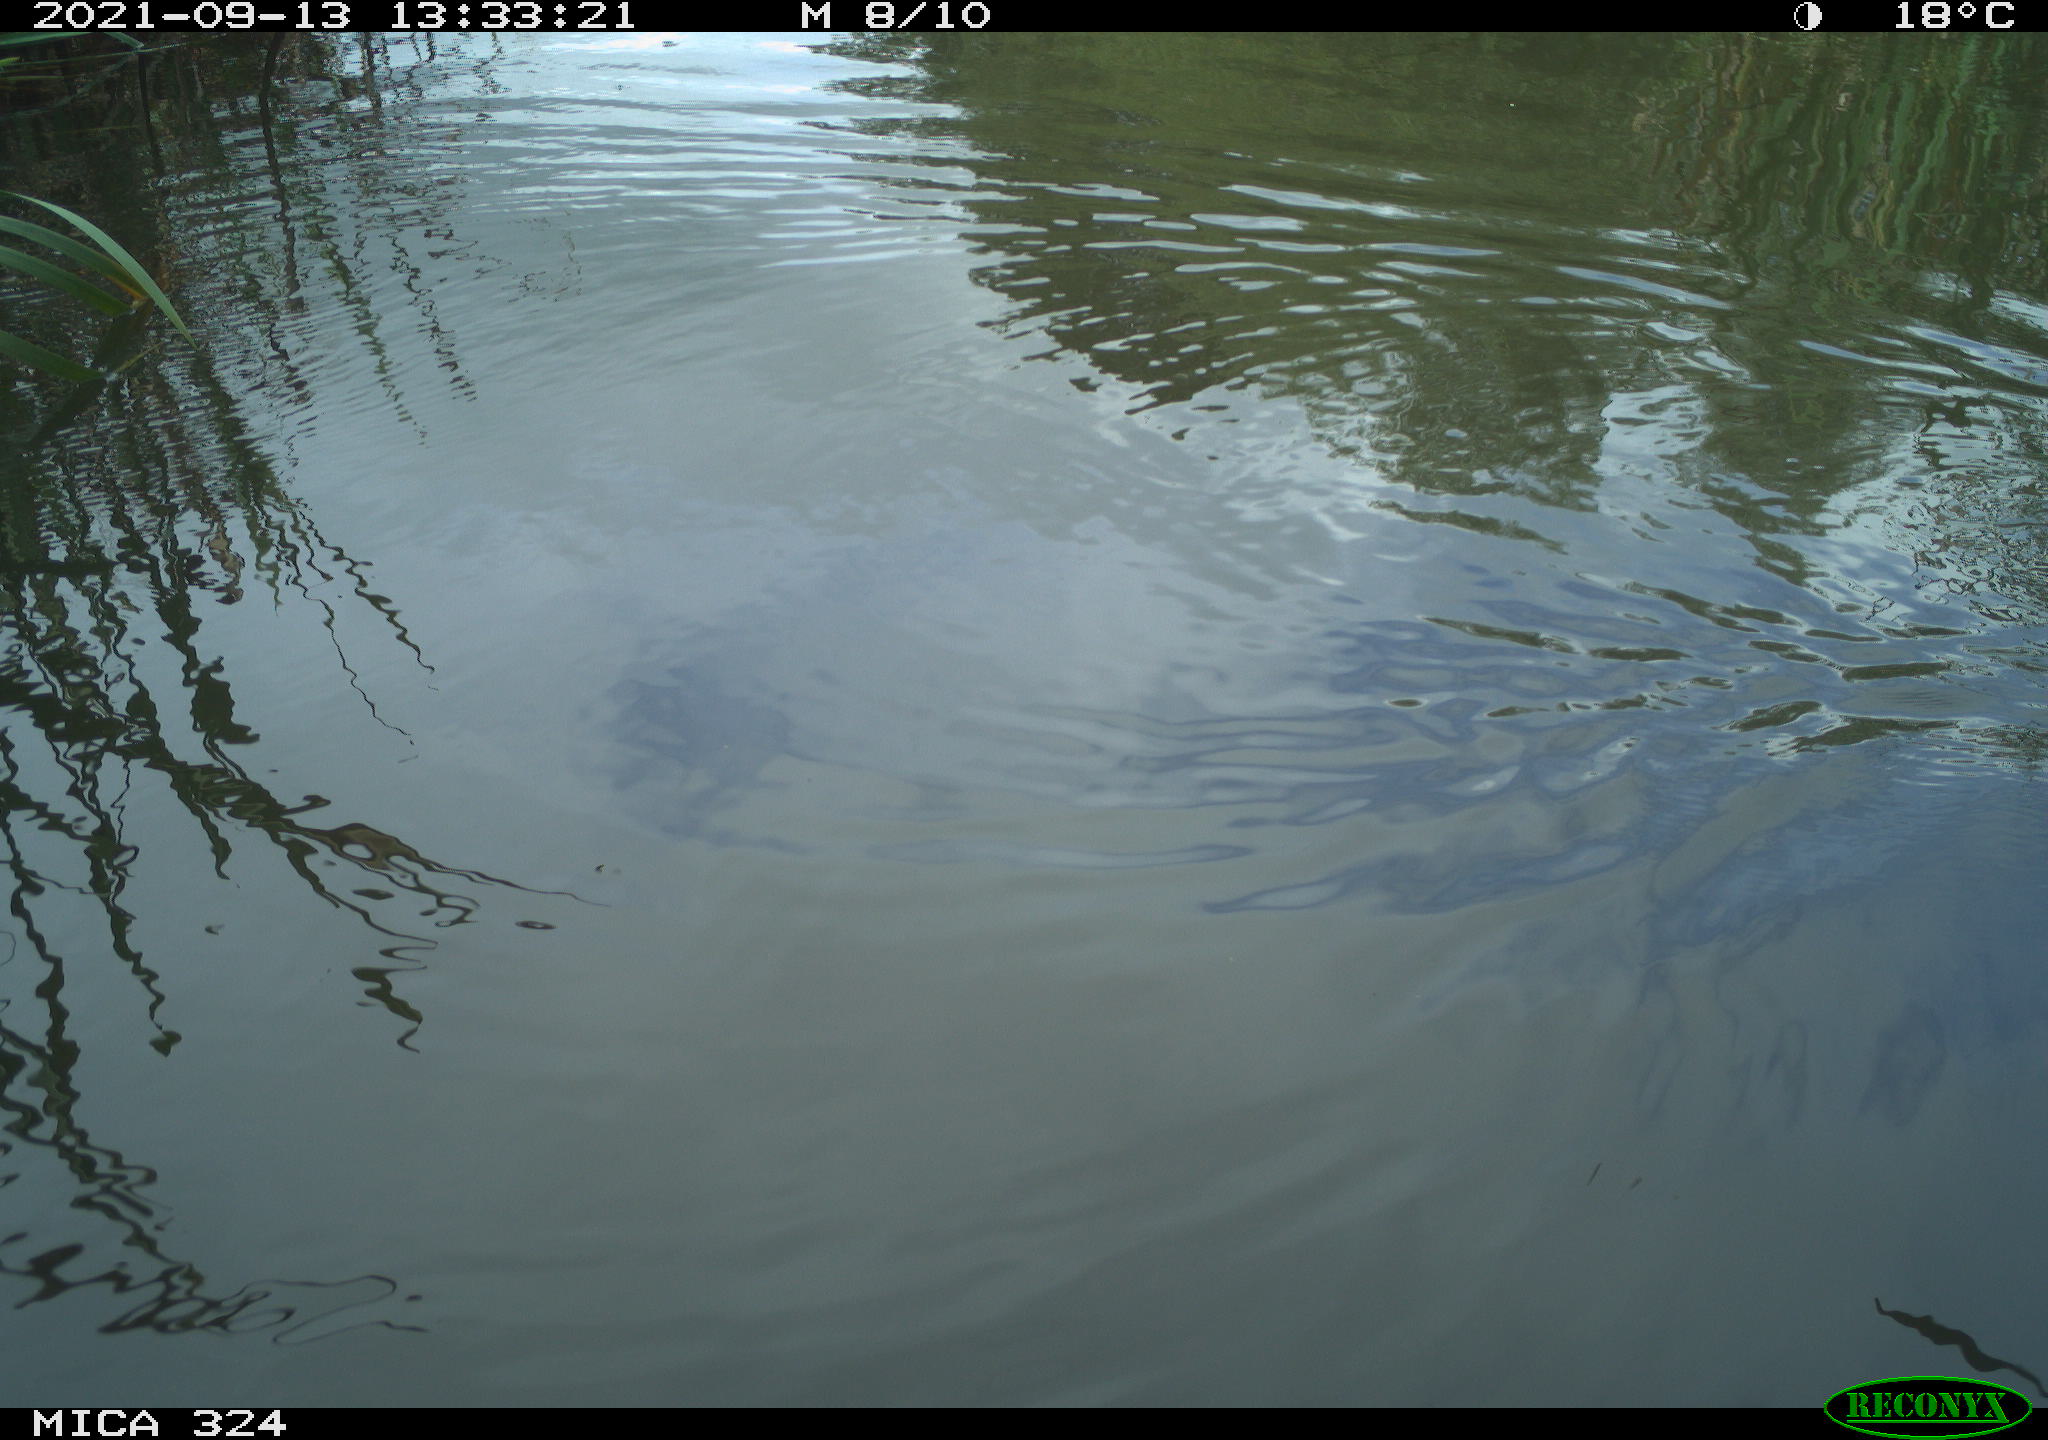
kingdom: Animalia
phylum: Chordata
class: Aves
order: Gruiformes
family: Rallidae
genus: Gallinula
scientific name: Gallinula chloropus
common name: Common moorhen
